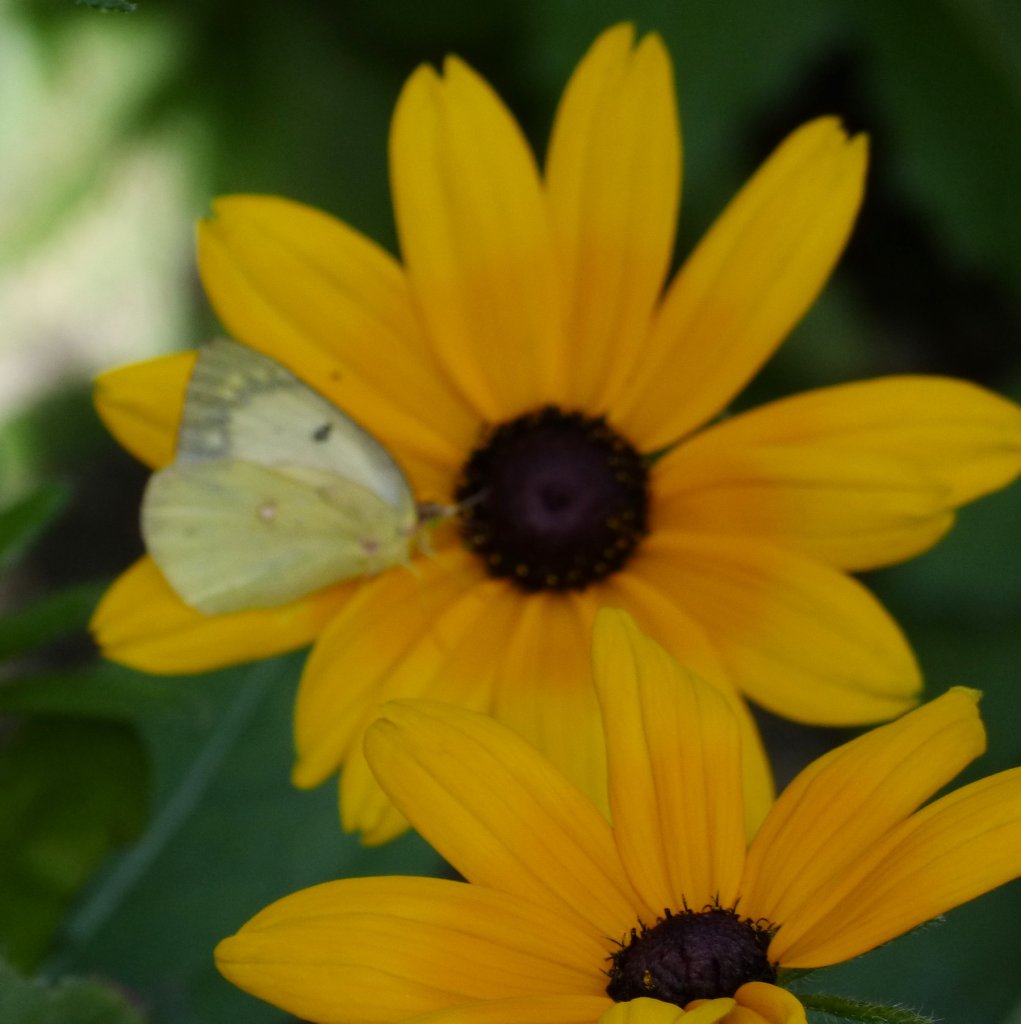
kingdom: Animalia
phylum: Arthropoda
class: Insecta
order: Lepidoptera
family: Pieridae
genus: Colias
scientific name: Colias philodice
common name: Clouded Sulphur
